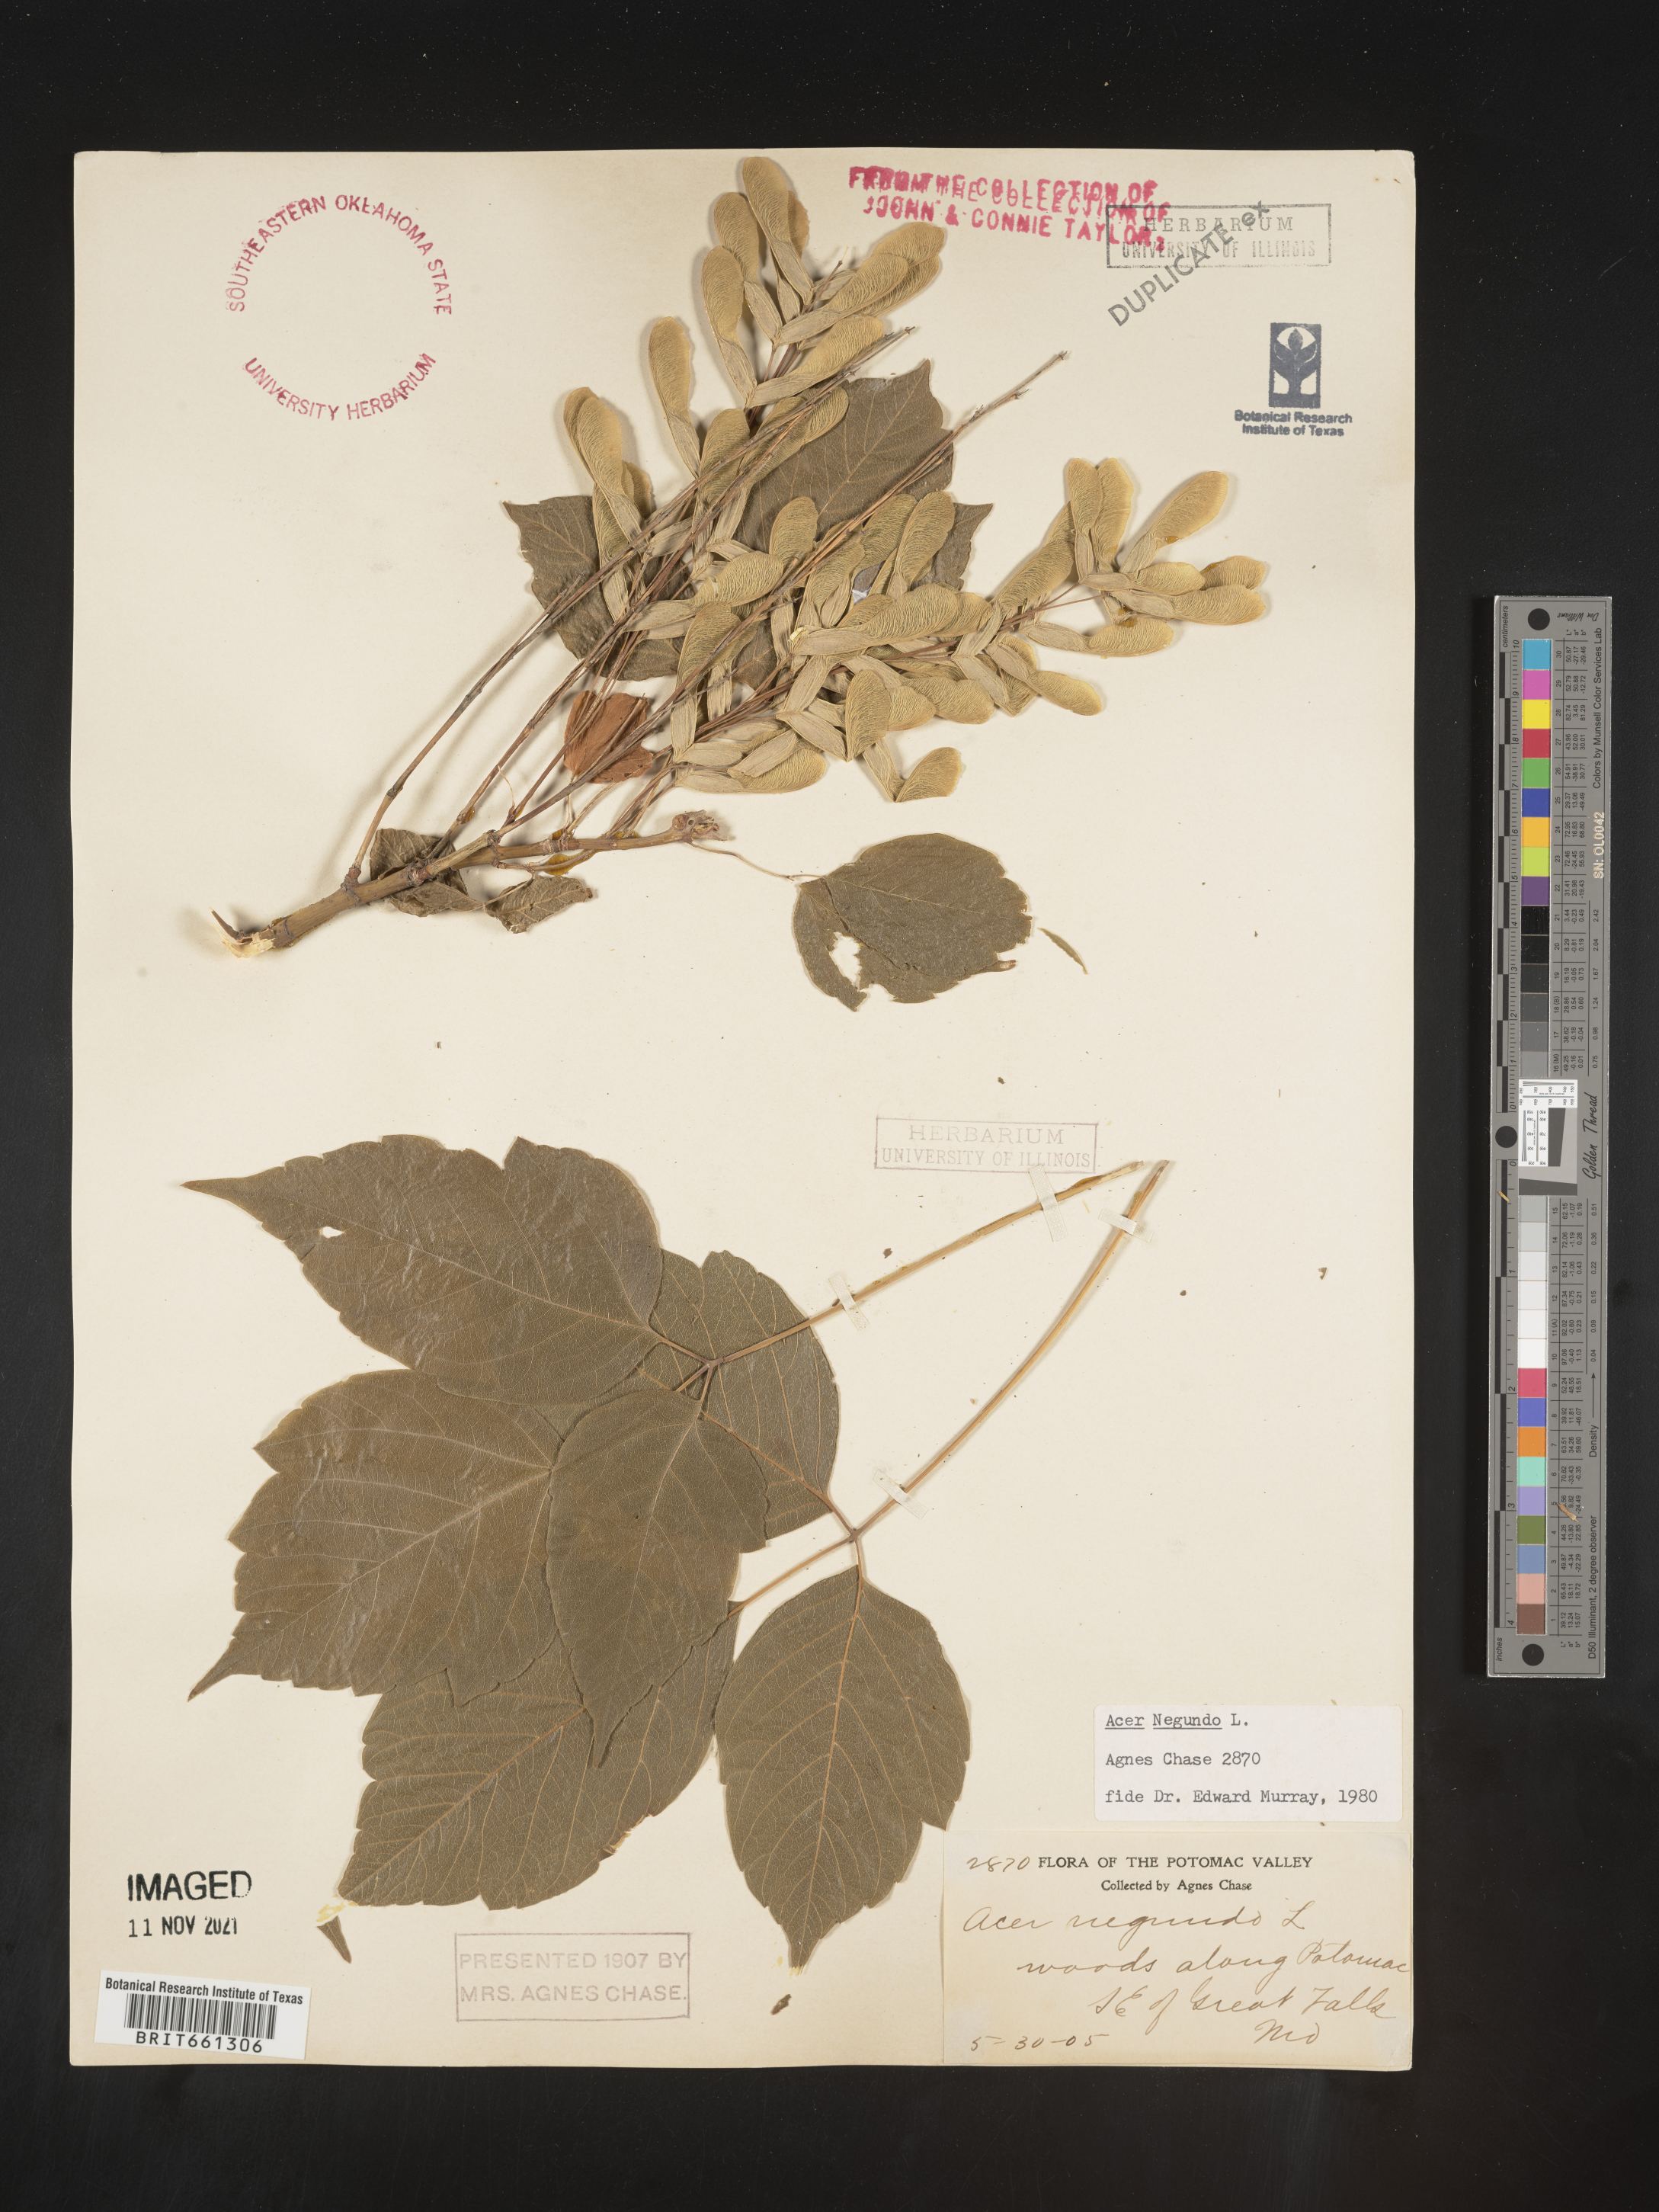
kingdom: Plantae
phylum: Tracheophyta
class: Magnoliopsida
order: Sapindales
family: Sapindaceae
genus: Acer
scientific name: Acer negundo
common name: Ashleaf maple
